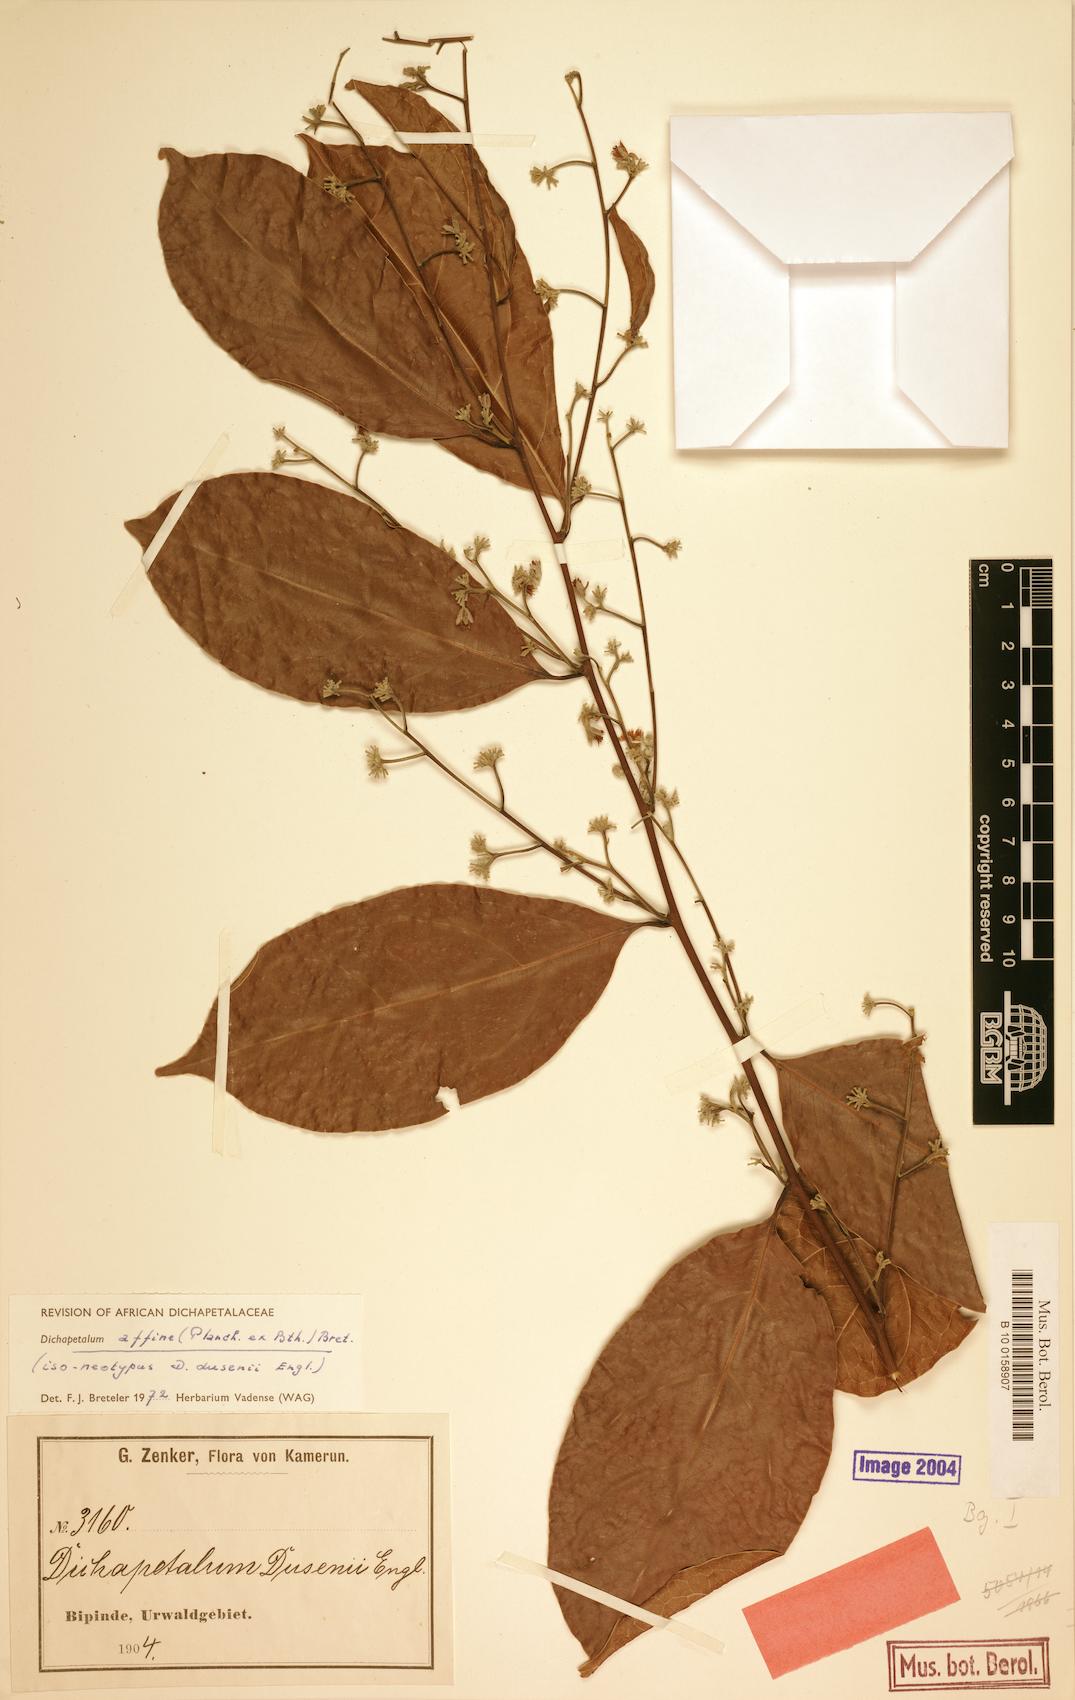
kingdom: Plantae
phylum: Tracheophyta
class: Magnoliopsida
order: Malpighiales
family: Dichapetalaceae
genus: Dichapetalum
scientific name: Dichapetalum affine
